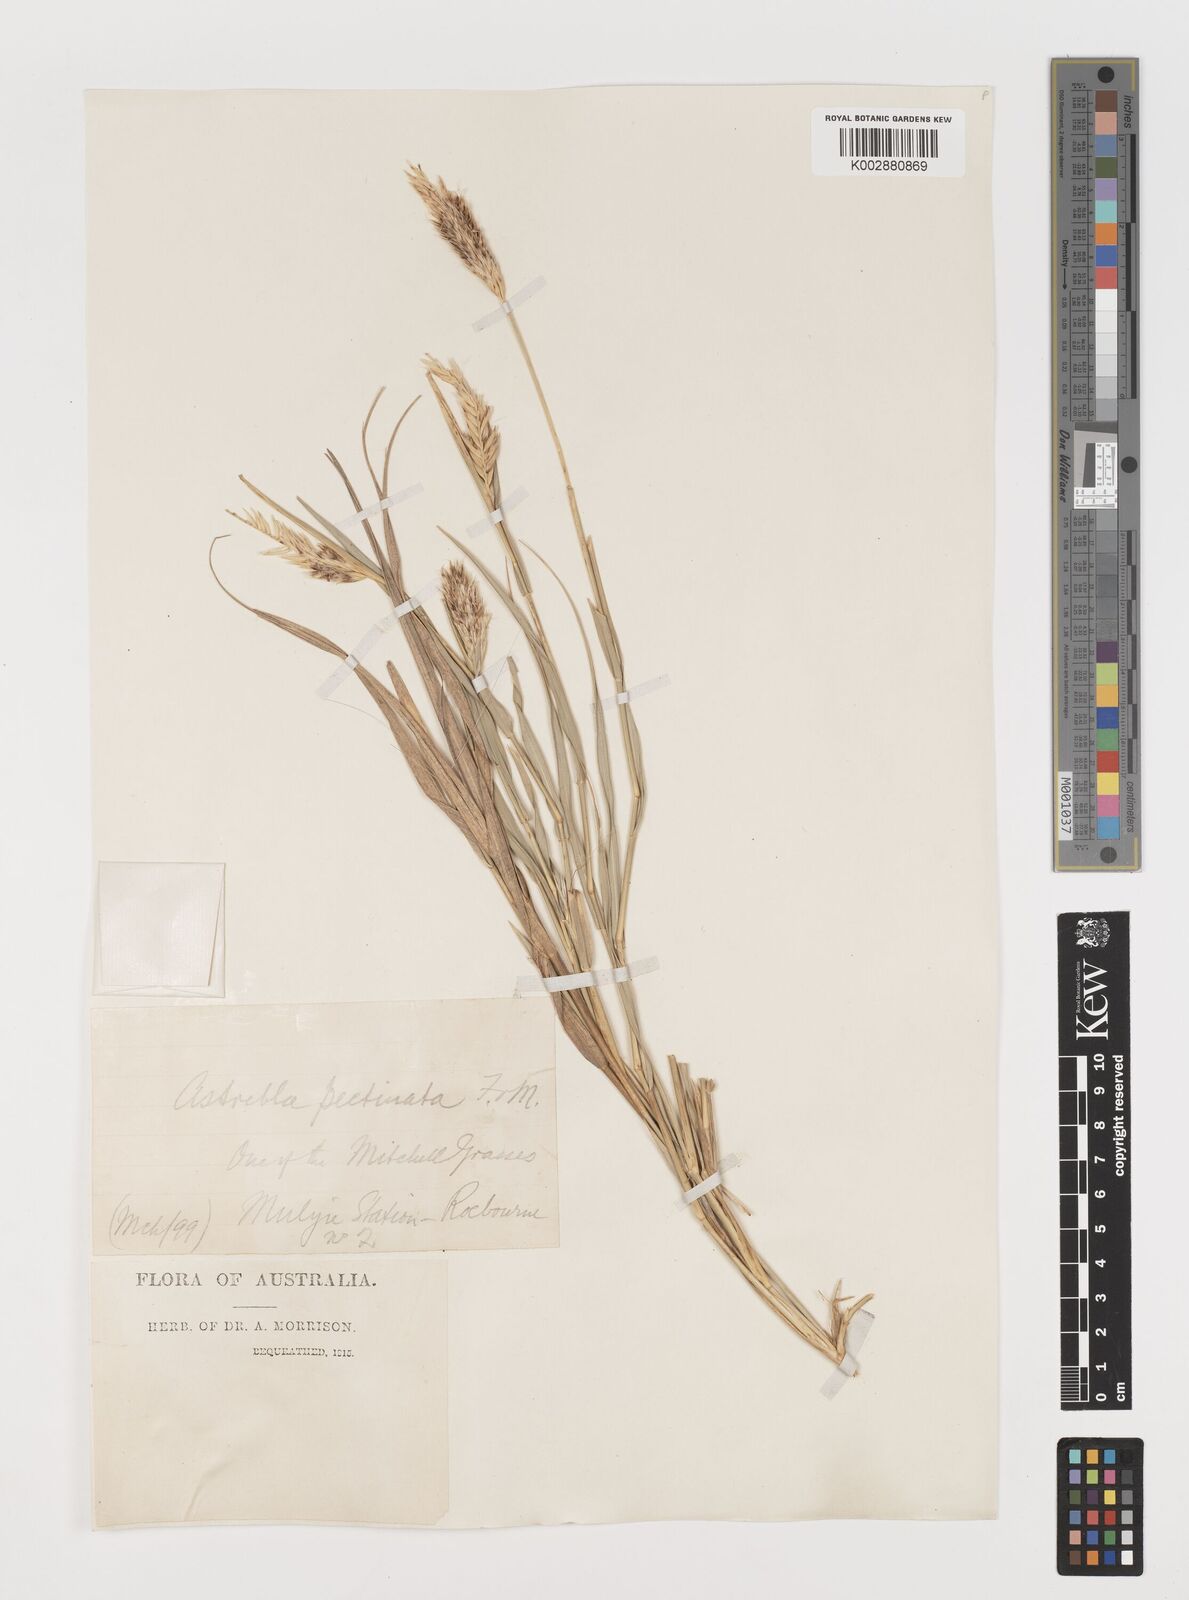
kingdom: Plantae
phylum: Tracheophyta
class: Liliopsida
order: Poales
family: Poaceae
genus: Astrebla
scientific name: Astrebla pectinata
